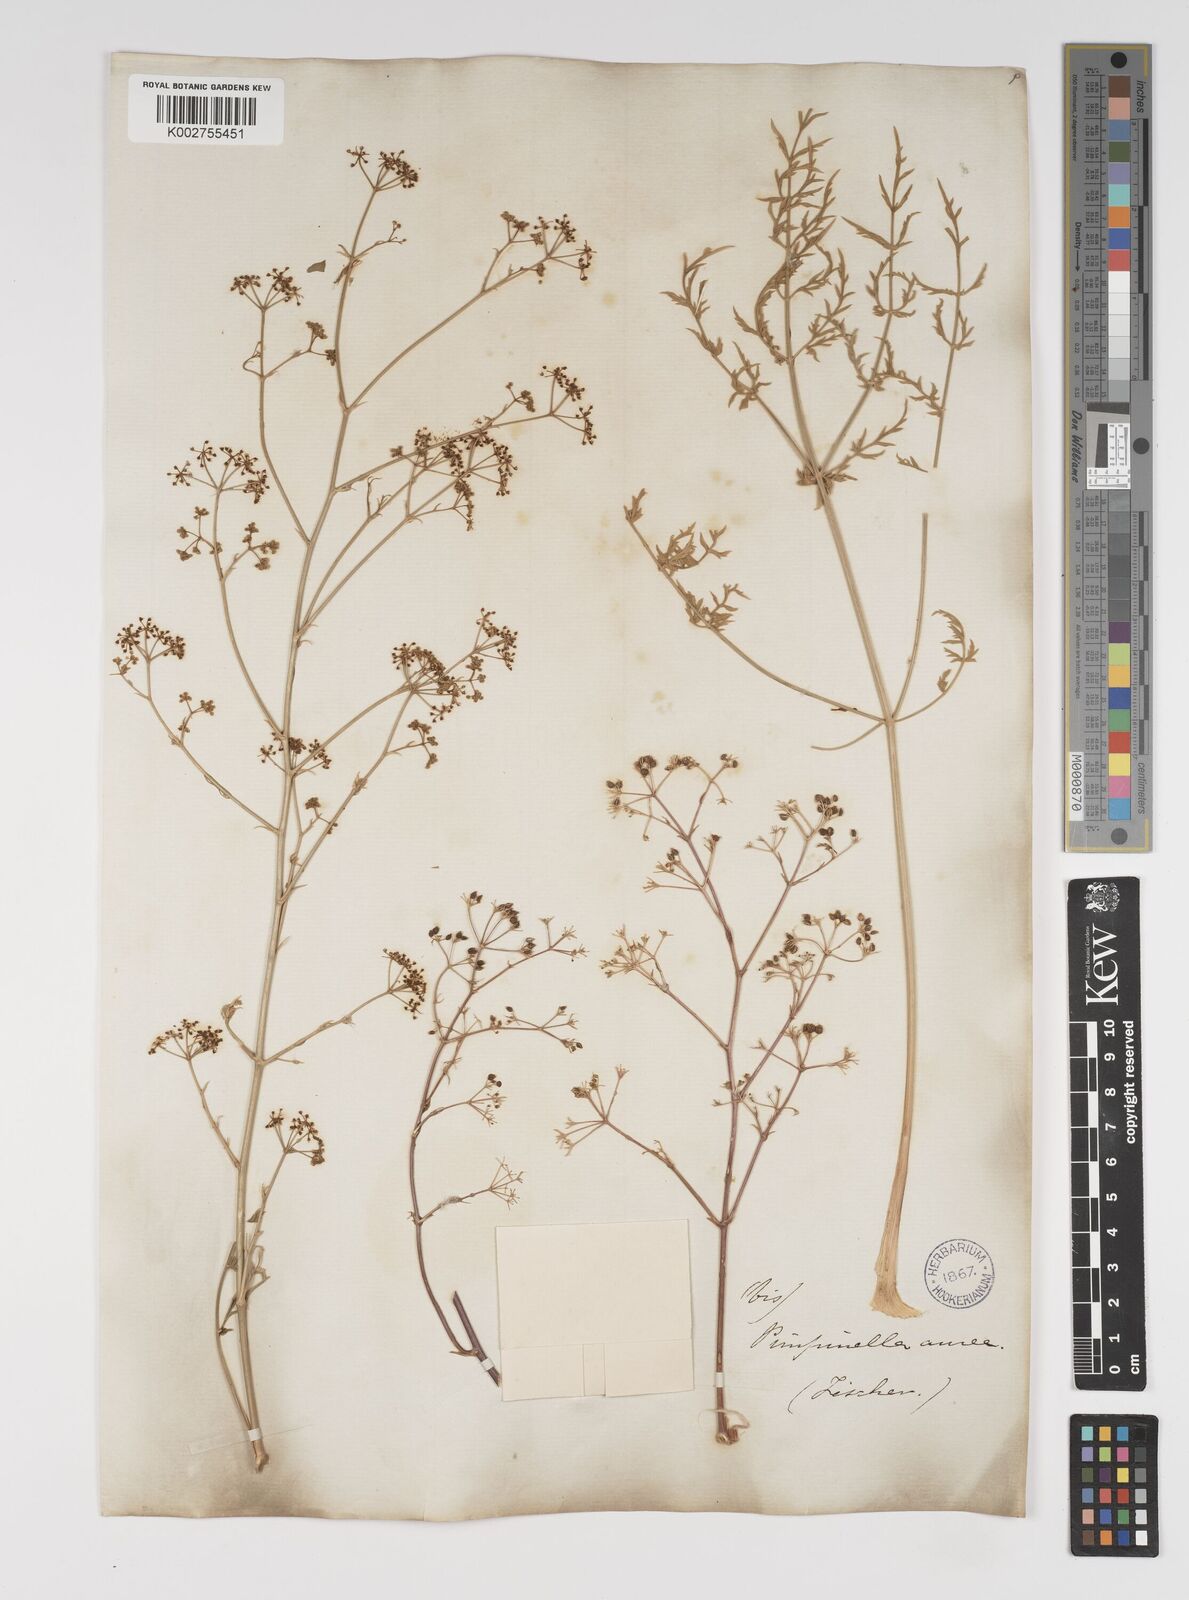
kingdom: Plantae
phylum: Tracheophyta
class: Magnoliopsida
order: Apiales
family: Apiaceae
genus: Pimpinella
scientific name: Pimpinella aurea
